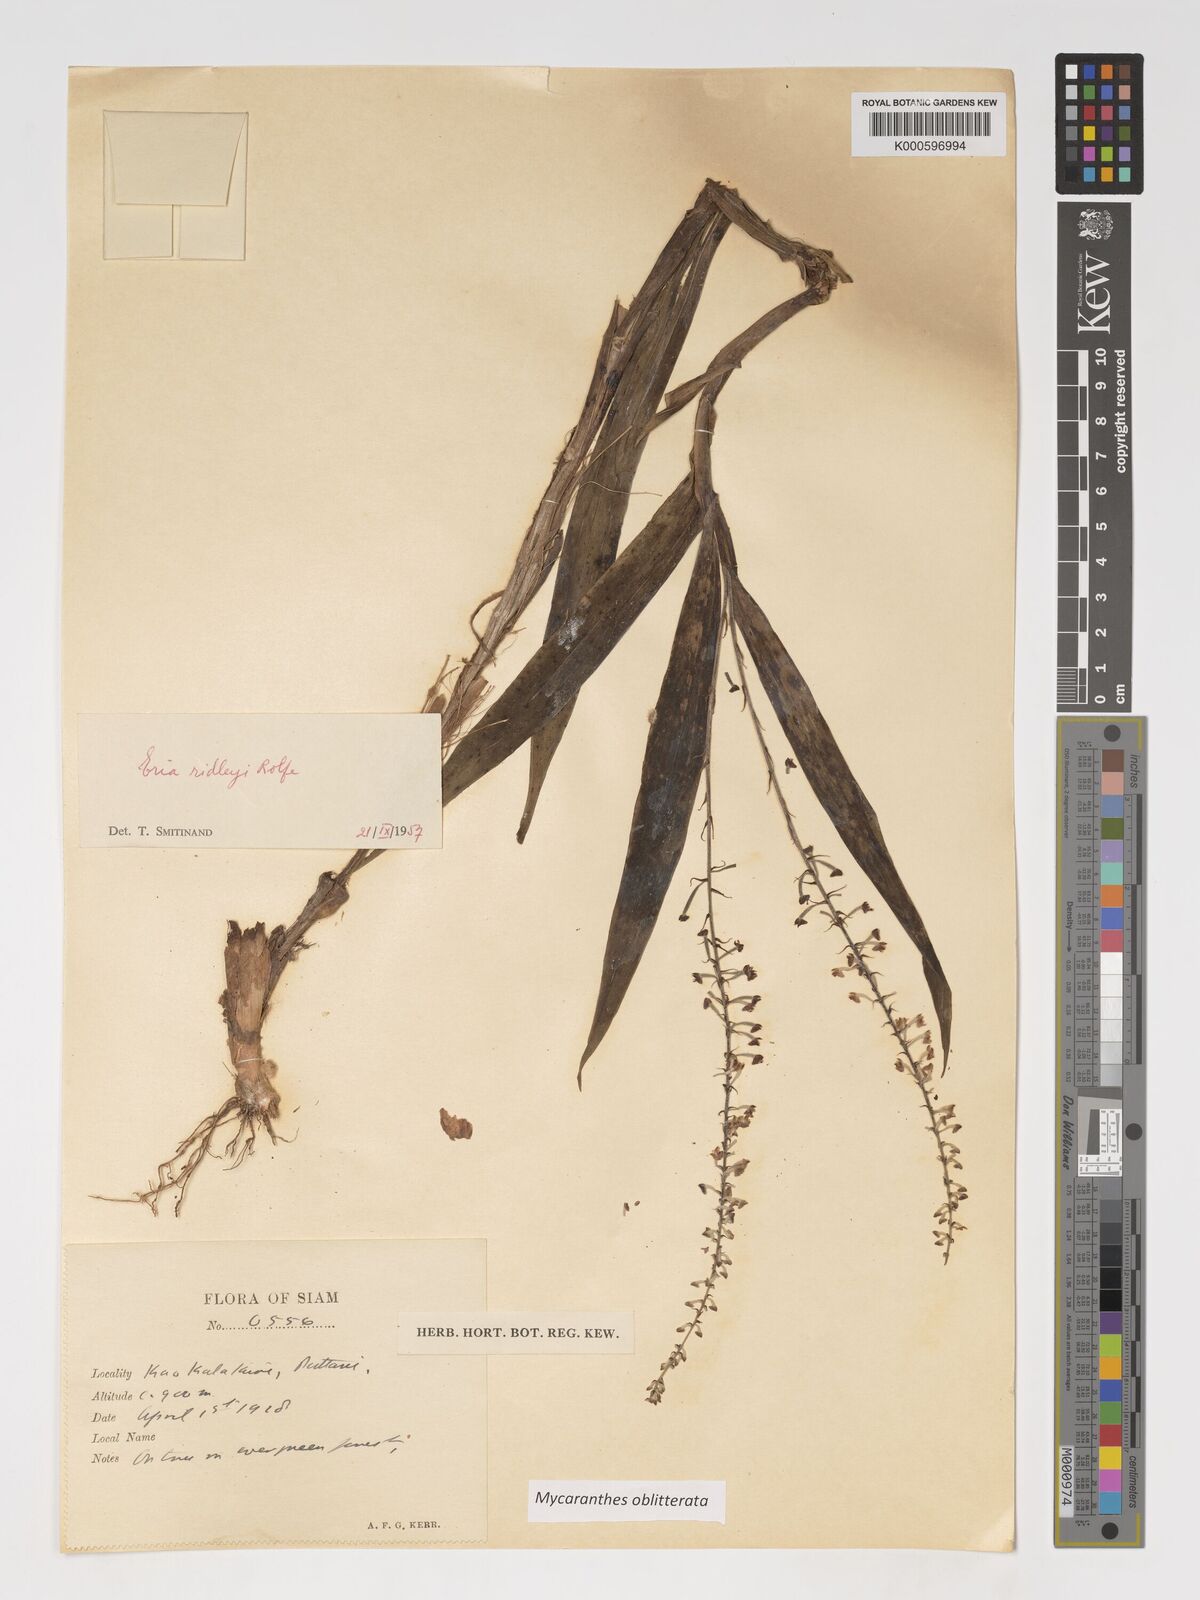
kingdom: Plantae
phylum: Tracheophyta
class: Liliopsida
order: Asparagales
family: Orchidaceae
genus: Mycaranthes
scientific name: Mycaranthes oblitterata
